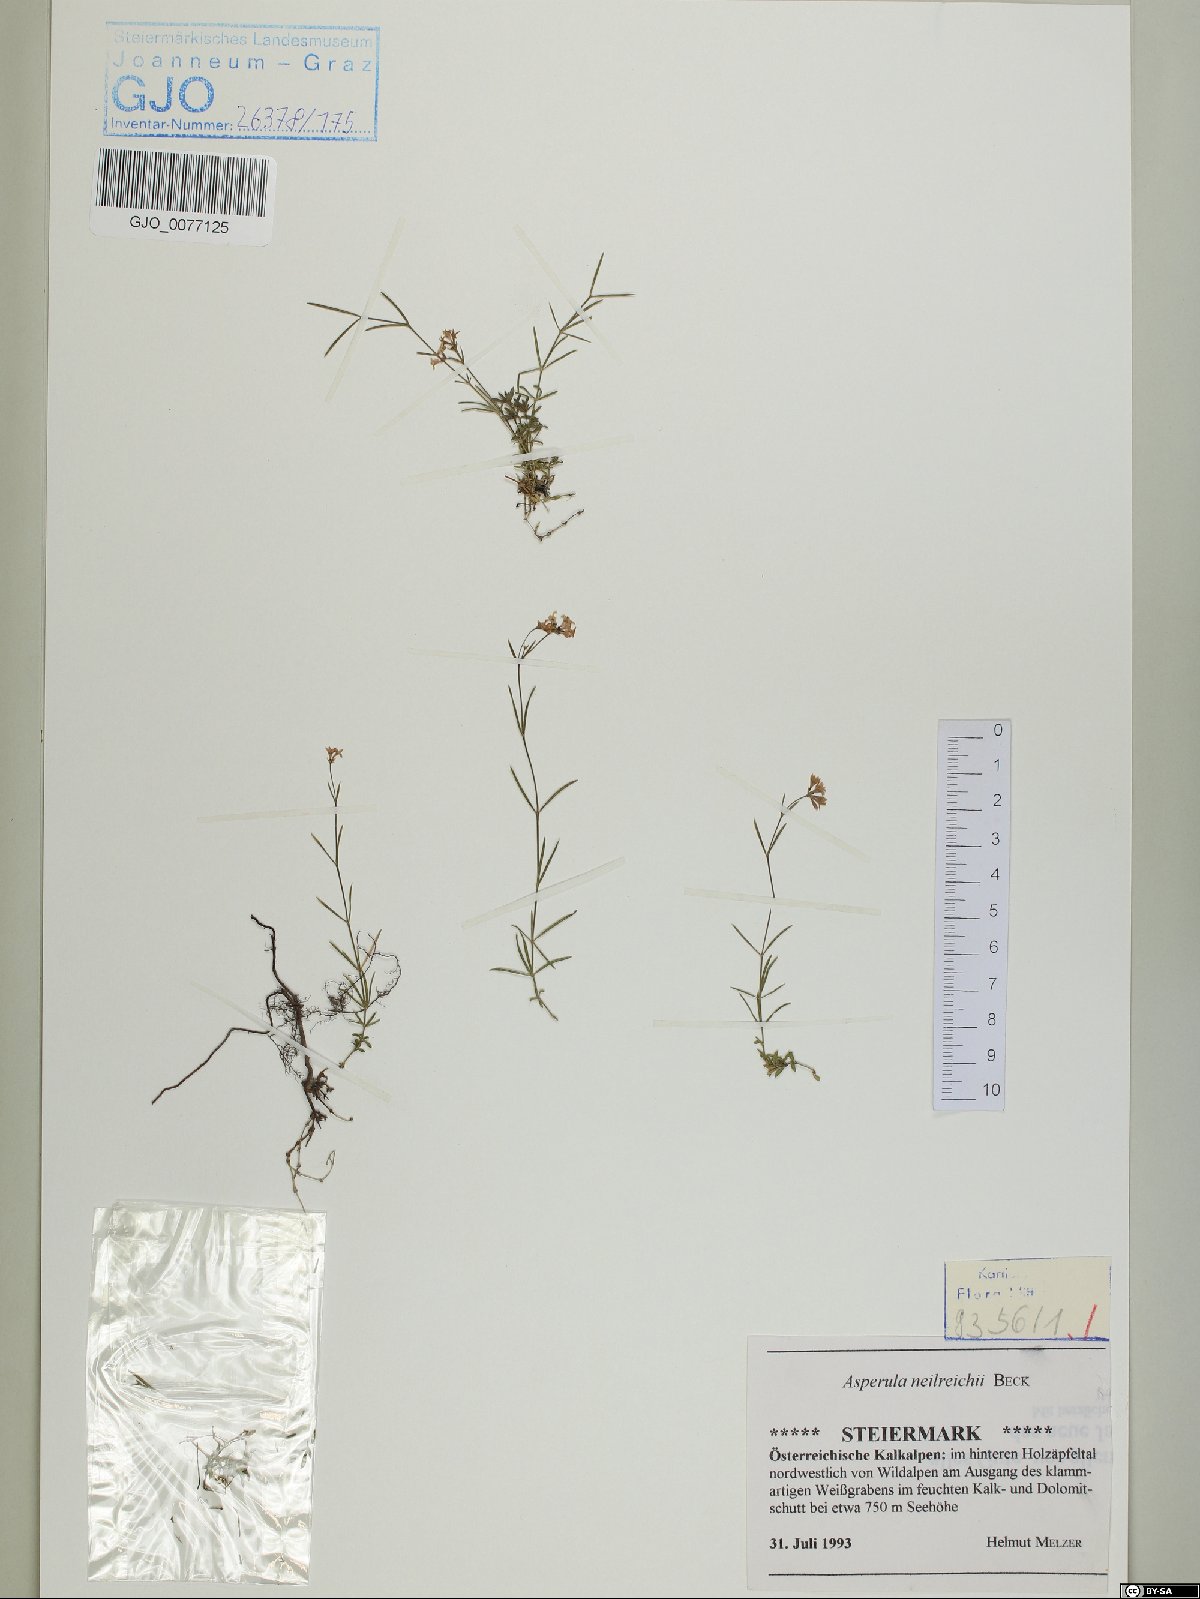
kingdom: Plantae
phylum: Tracheophyta
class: Magnoliopsida
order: Gentianales
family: Rubiaceae
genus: Cynanchica
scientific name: Cynanchica neilreichii
